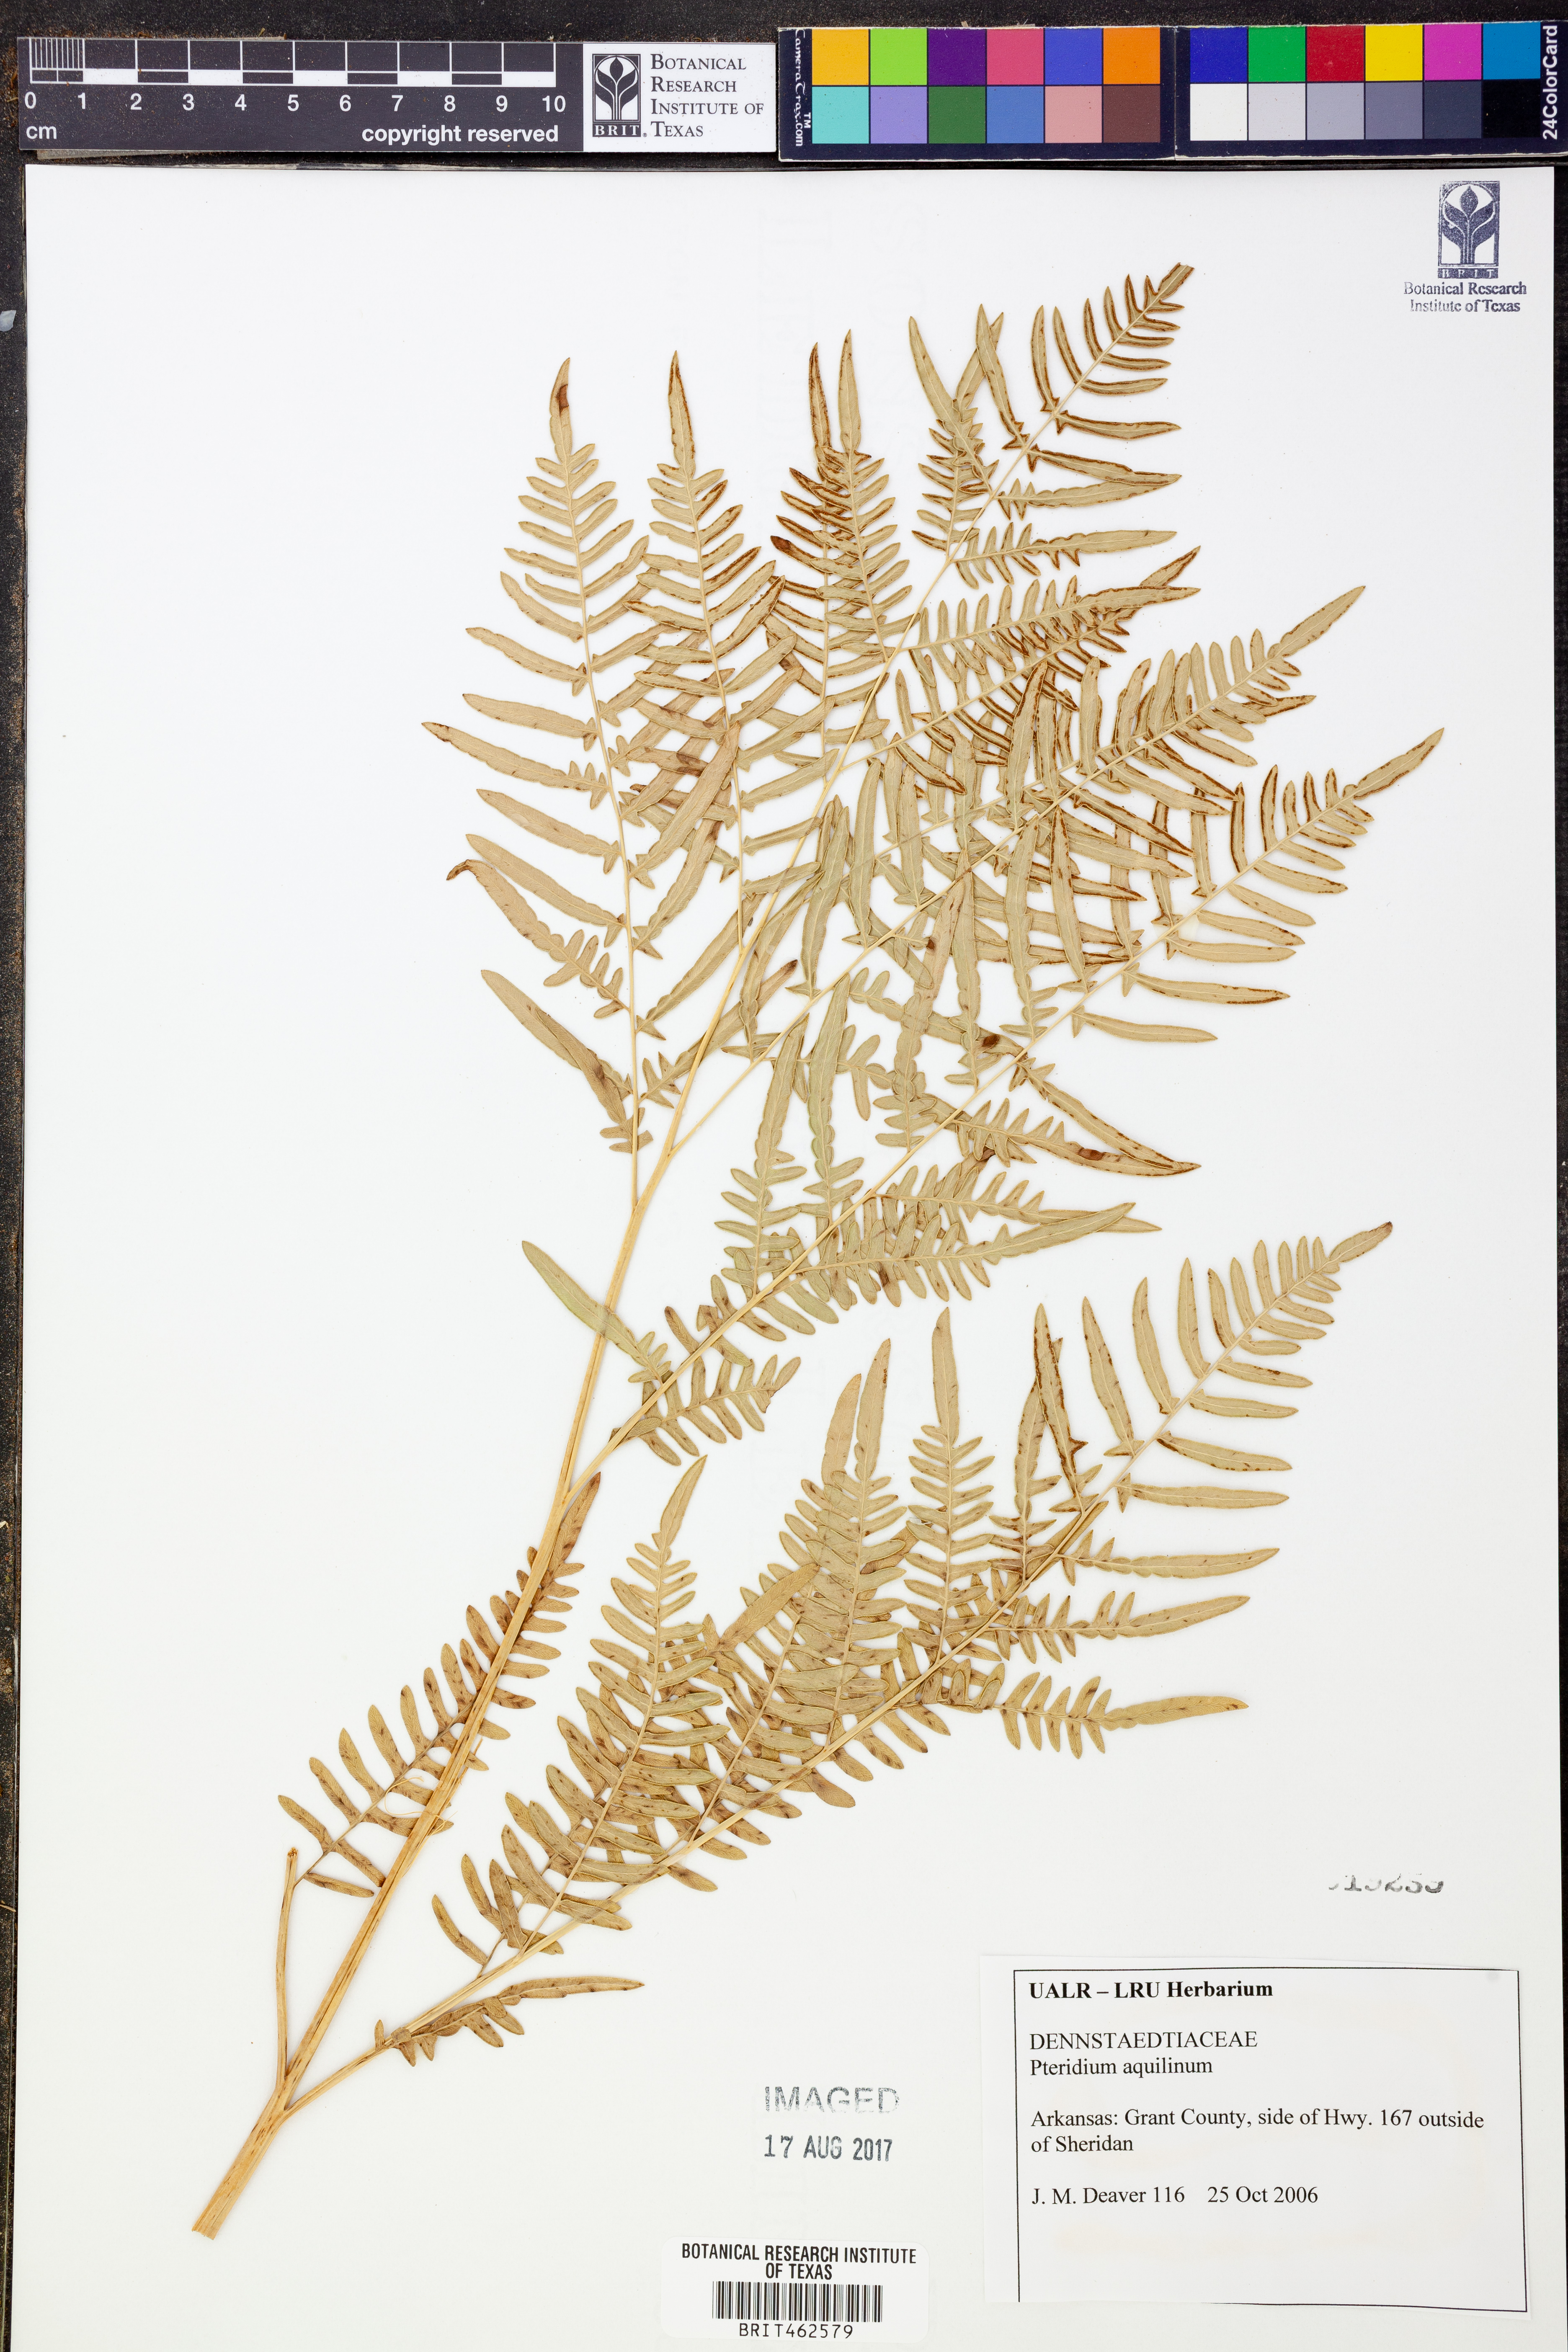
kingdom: Plantae
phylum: Tracheophyta
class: Polypodiopsida
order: Polypodiales
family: Dennstaedtiaceae
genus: Pteridium
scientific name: Pteridium aquilinum
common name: Bracken
